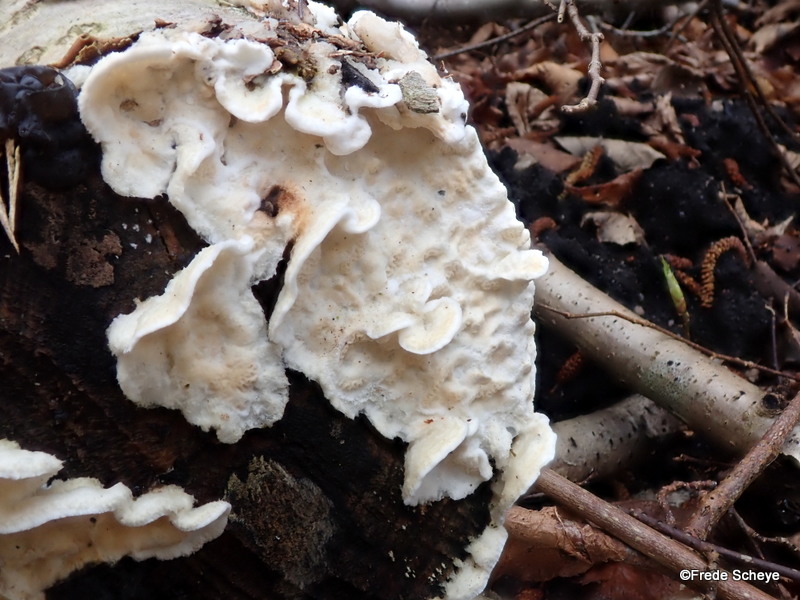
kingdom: Fungi
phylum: Basidiomycota
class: Agaricomycetes
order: Polyporales
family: Irpicaceae
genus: Byssomerulius
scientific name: Byssomerulius corium
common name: læder-åresvamp
